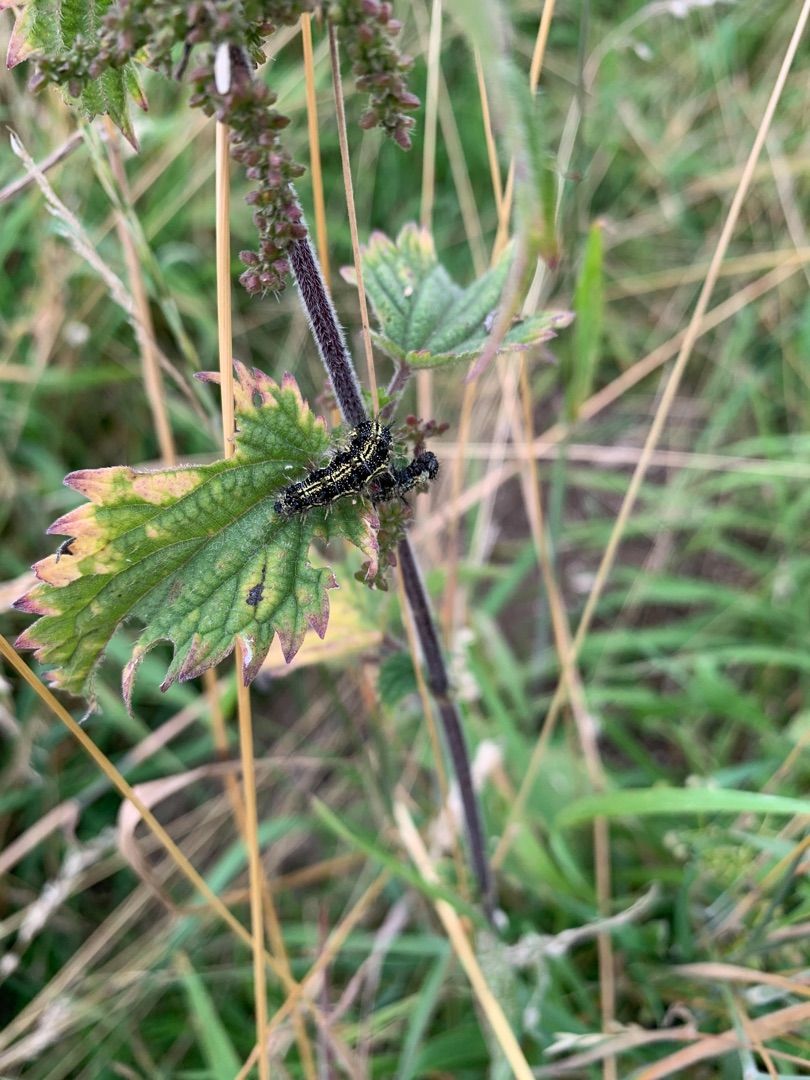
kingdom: Animalia
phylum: Arthropoda
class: Insecta
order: Lepidoptera
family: Nymphalidae
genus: Aglais
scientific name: Aglais urticae
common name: Nældens takvinge
